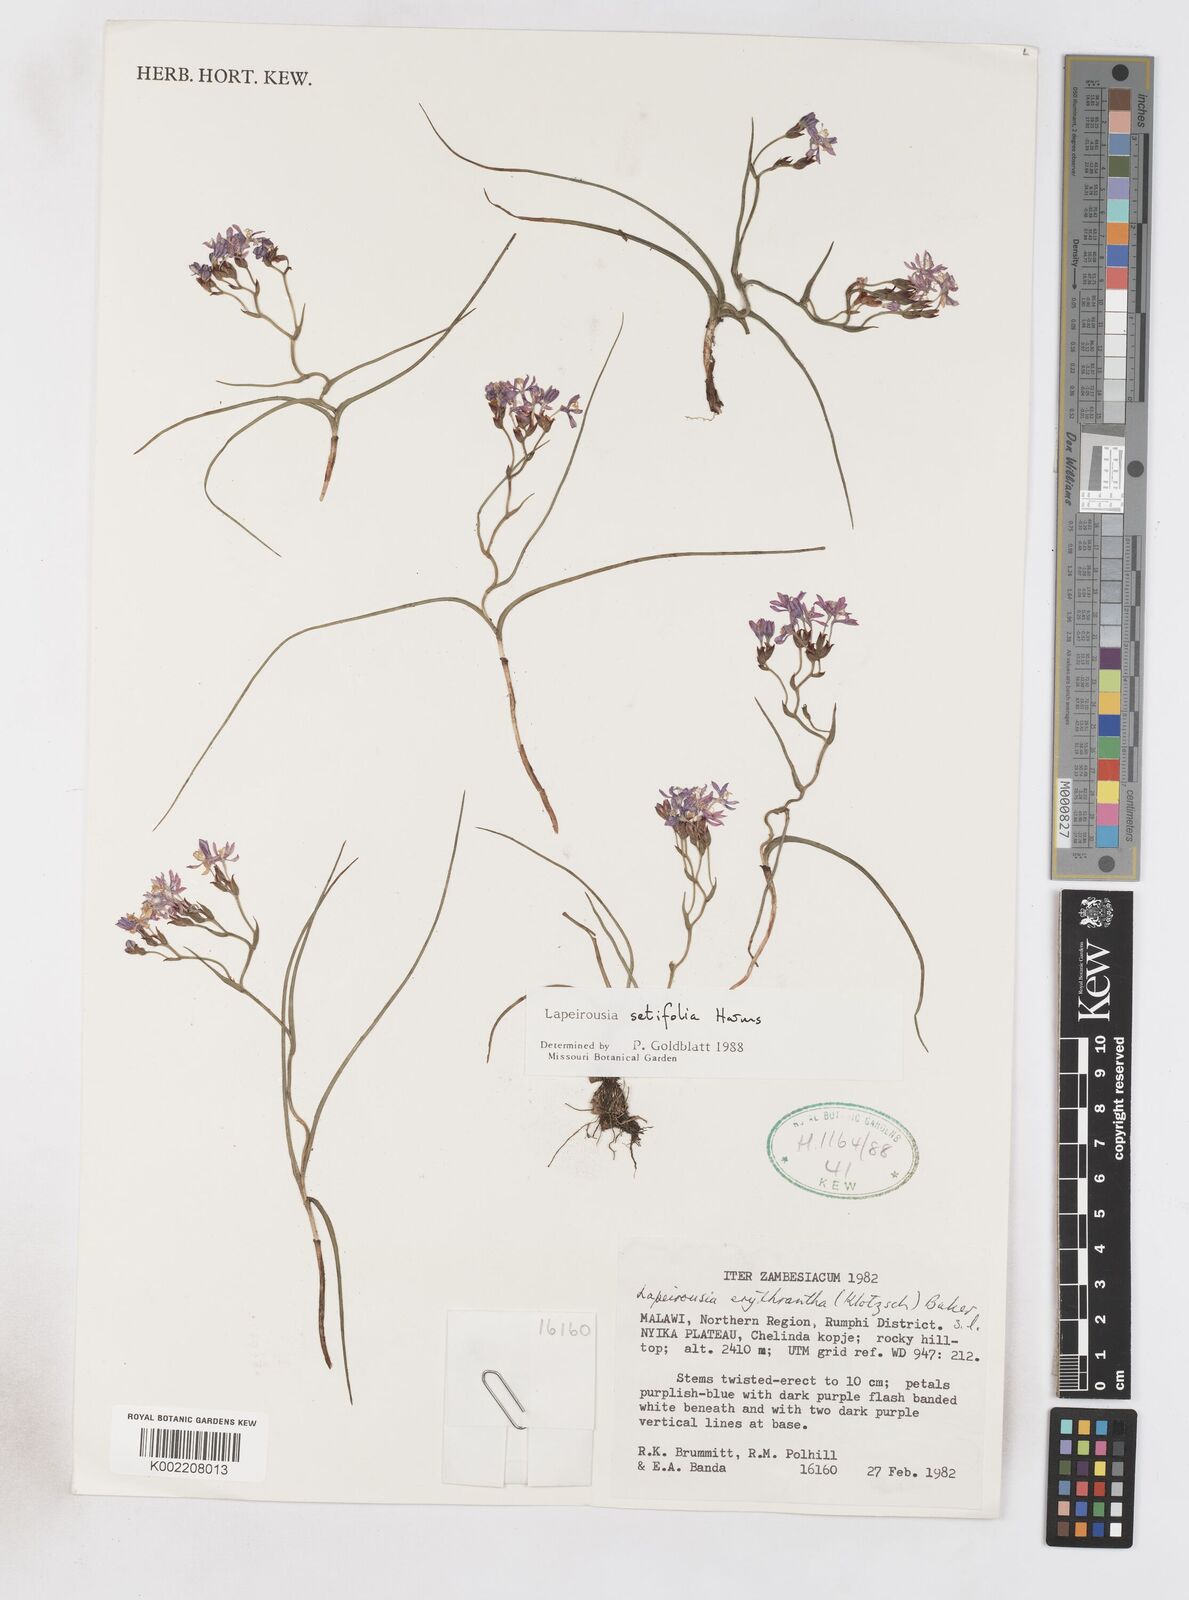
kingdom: Plantae
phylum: Tracheophyta
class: Liliopsida
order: Asparagales
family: Iridaceae
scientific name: Iridaceae
